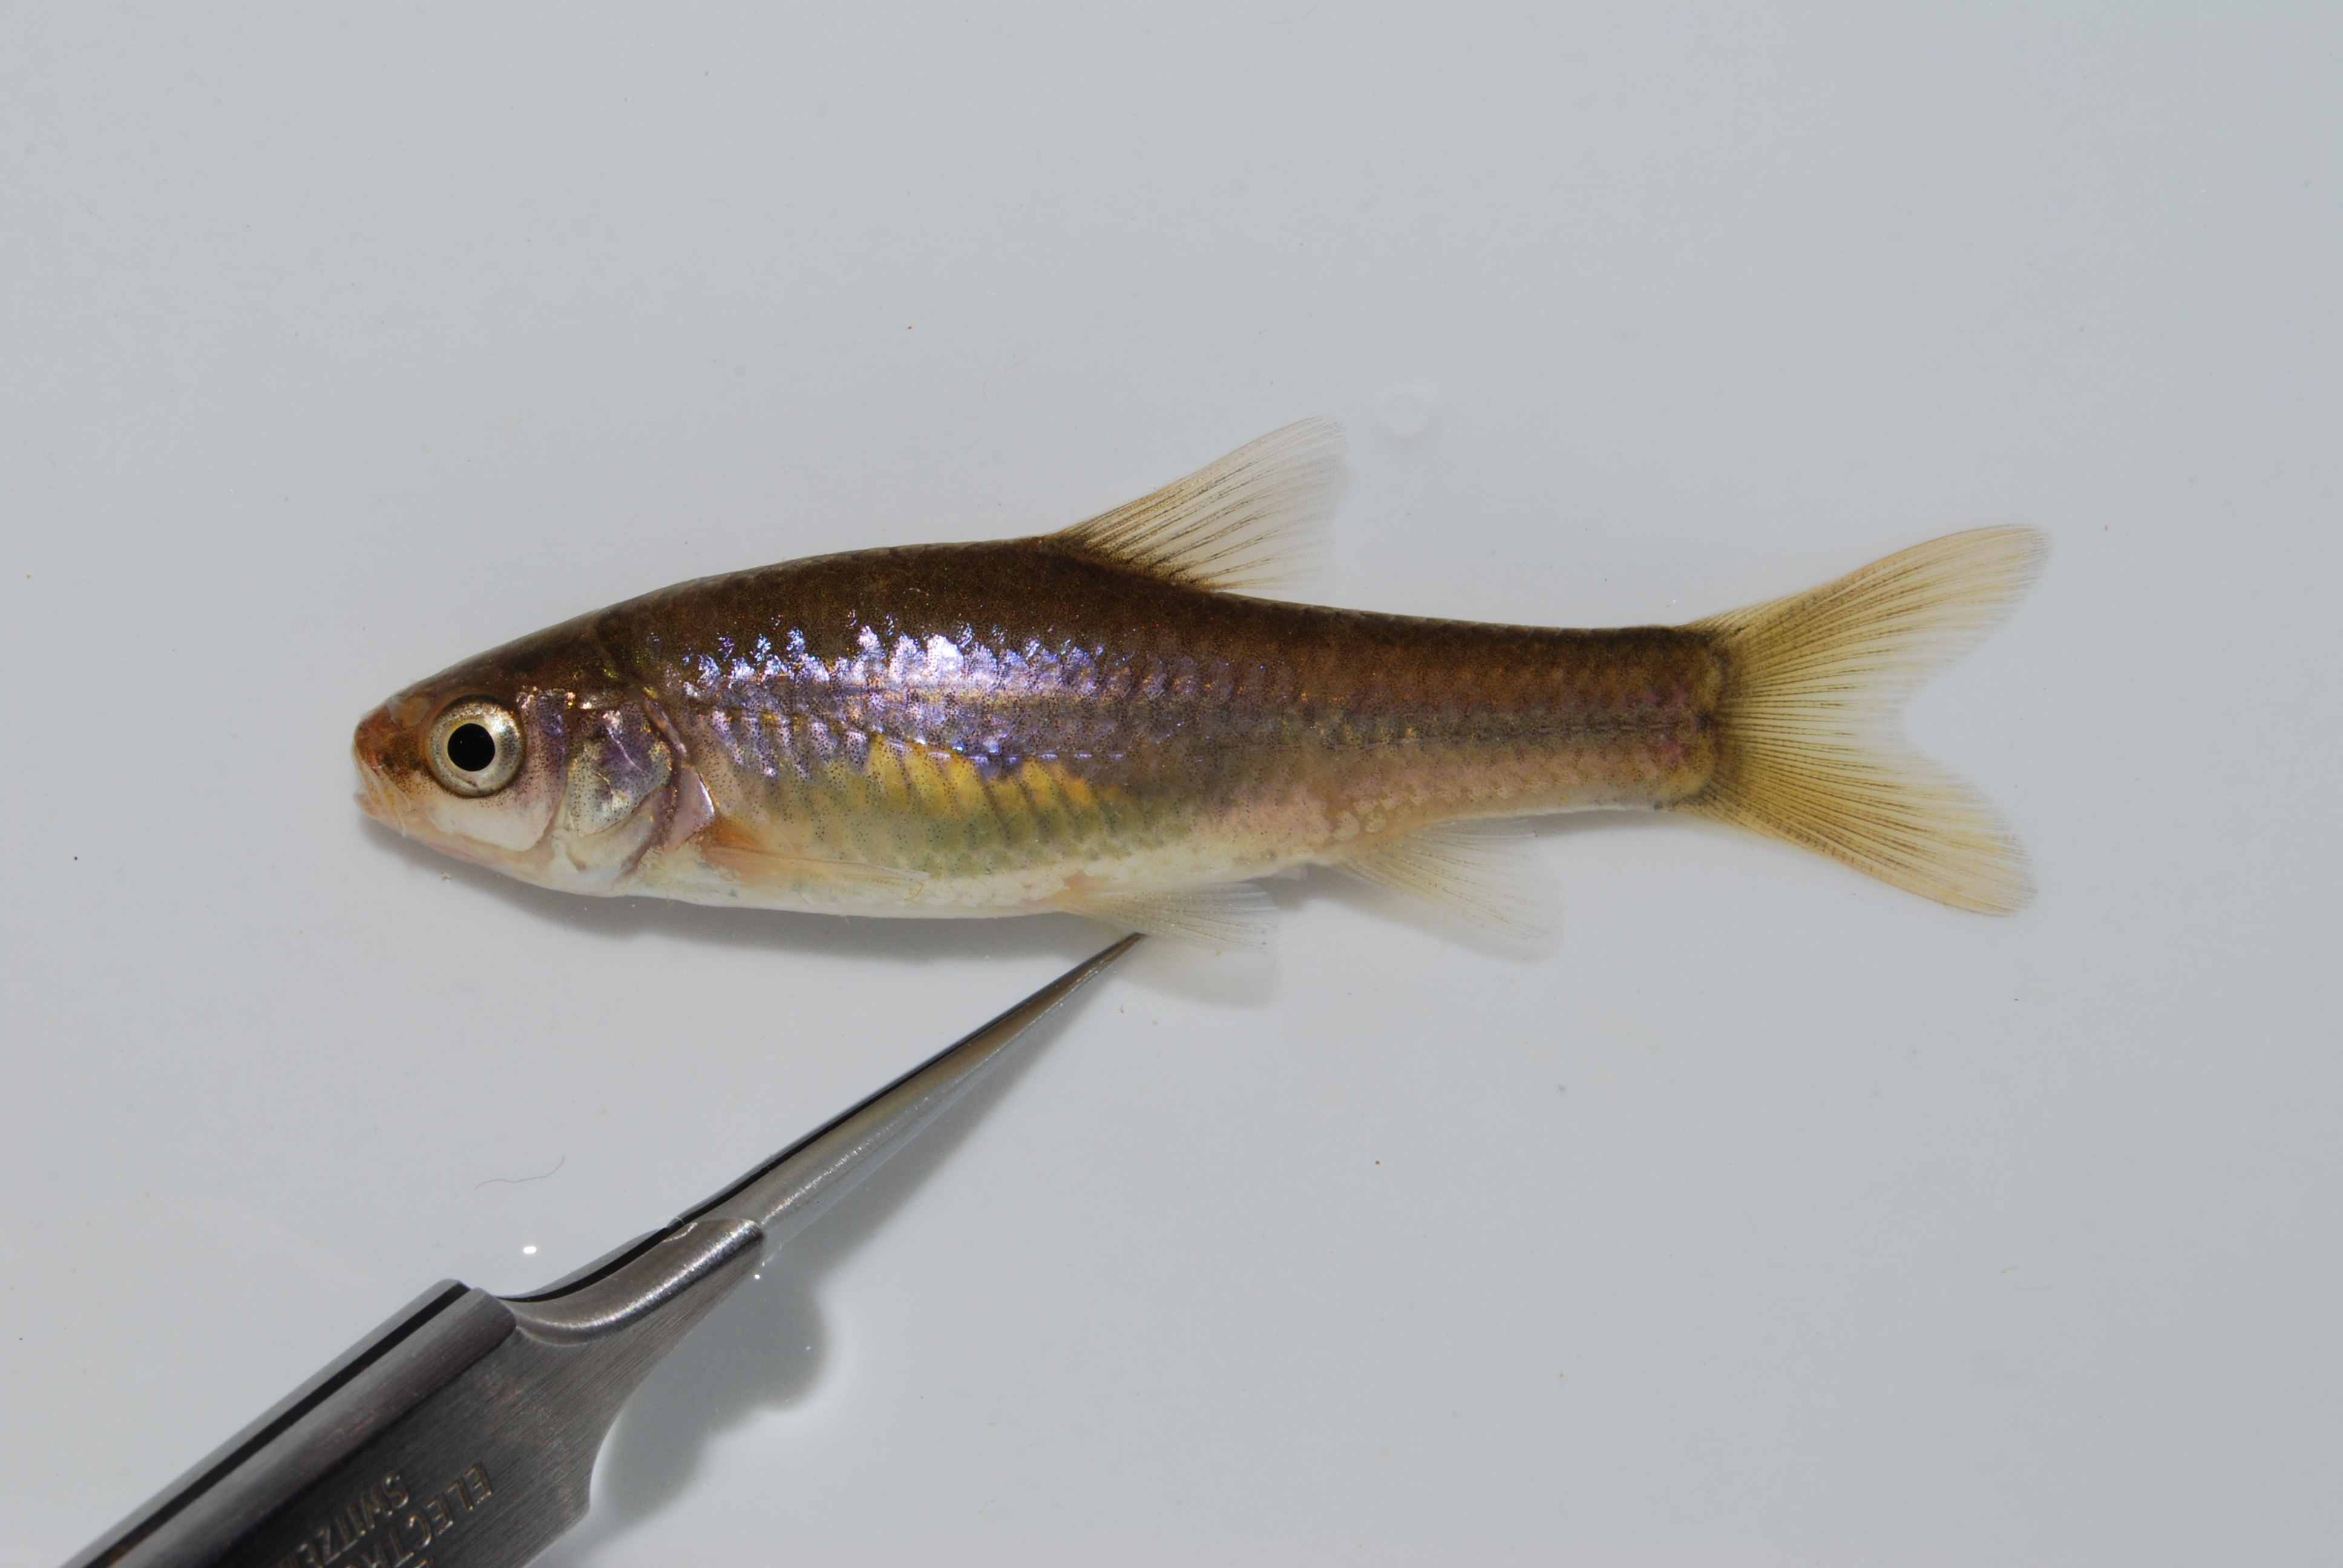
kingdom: Animalia
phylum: Chordata
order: Cypriniformes
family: Cyprinidae
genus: Enteromius
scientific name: Enteromius anoplus
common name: Chubbyhead barb
